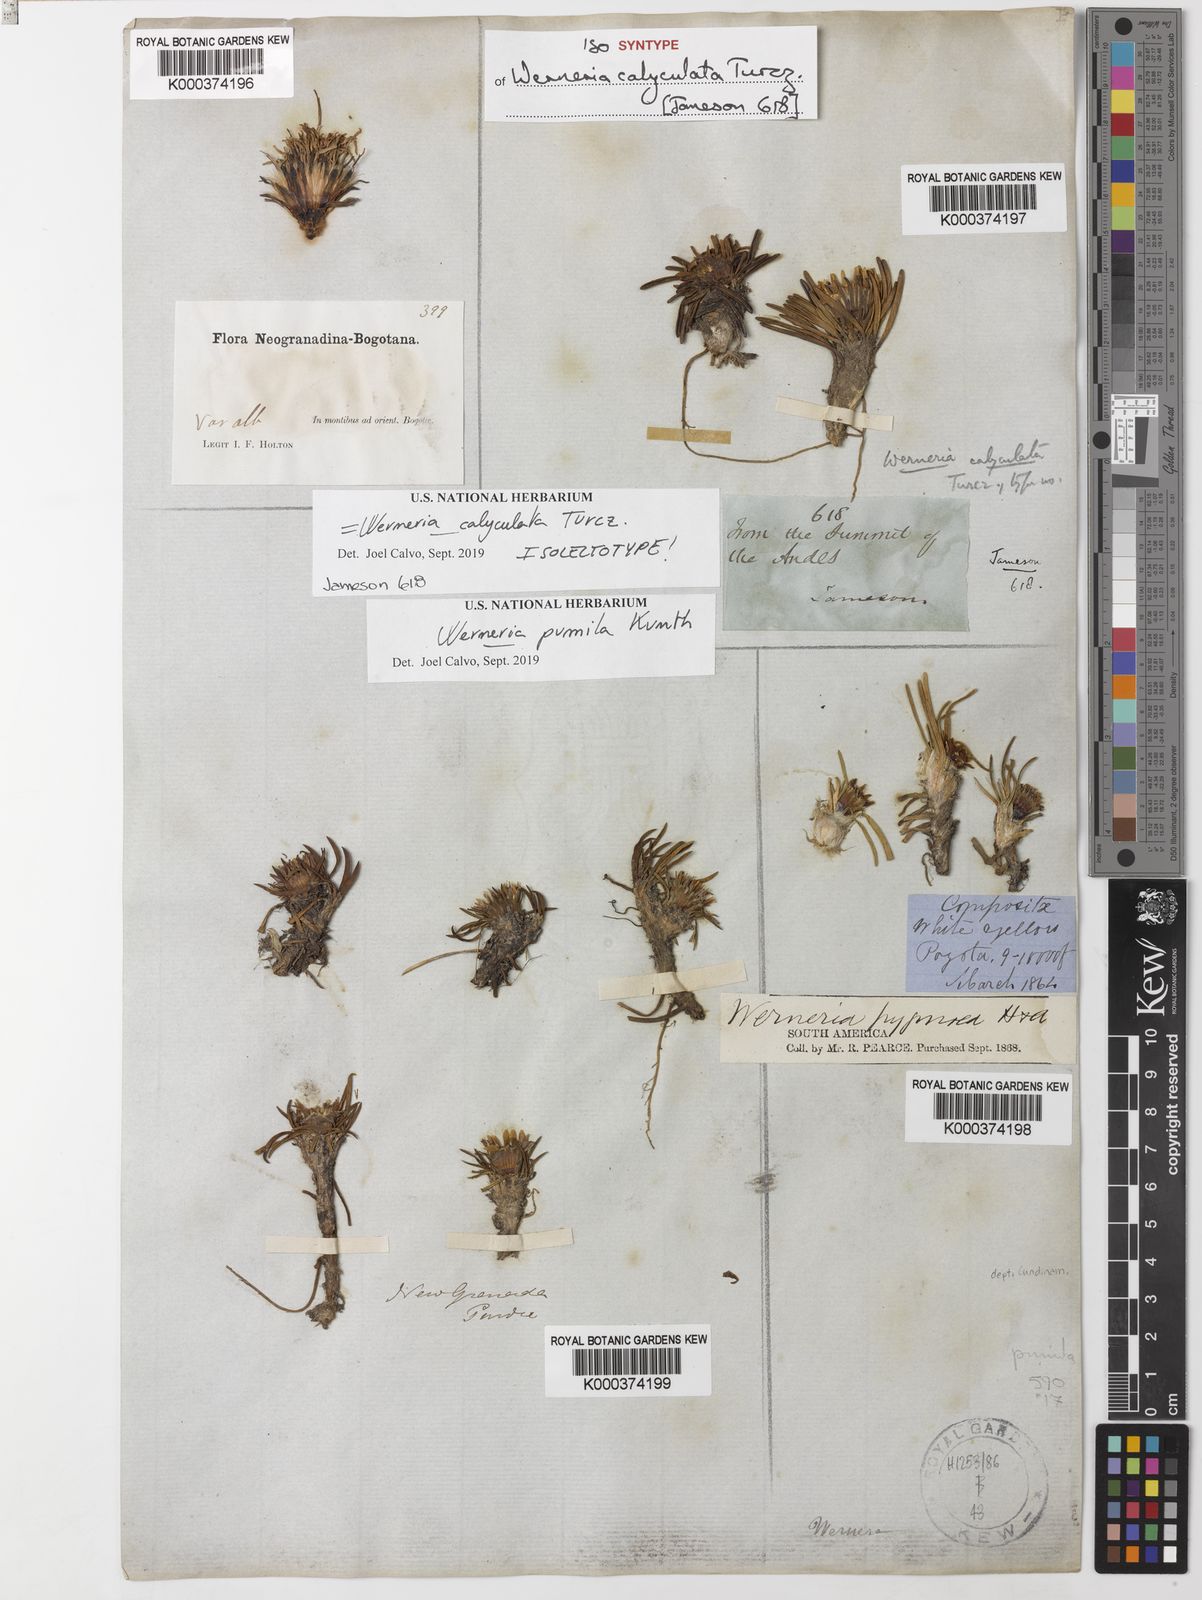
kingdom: Plantae
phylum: Tracheophyta
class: Magnoliopsida
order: Asterales
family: Asteraceae
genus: Rockhausenia
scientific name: Rockhausenia pumila
